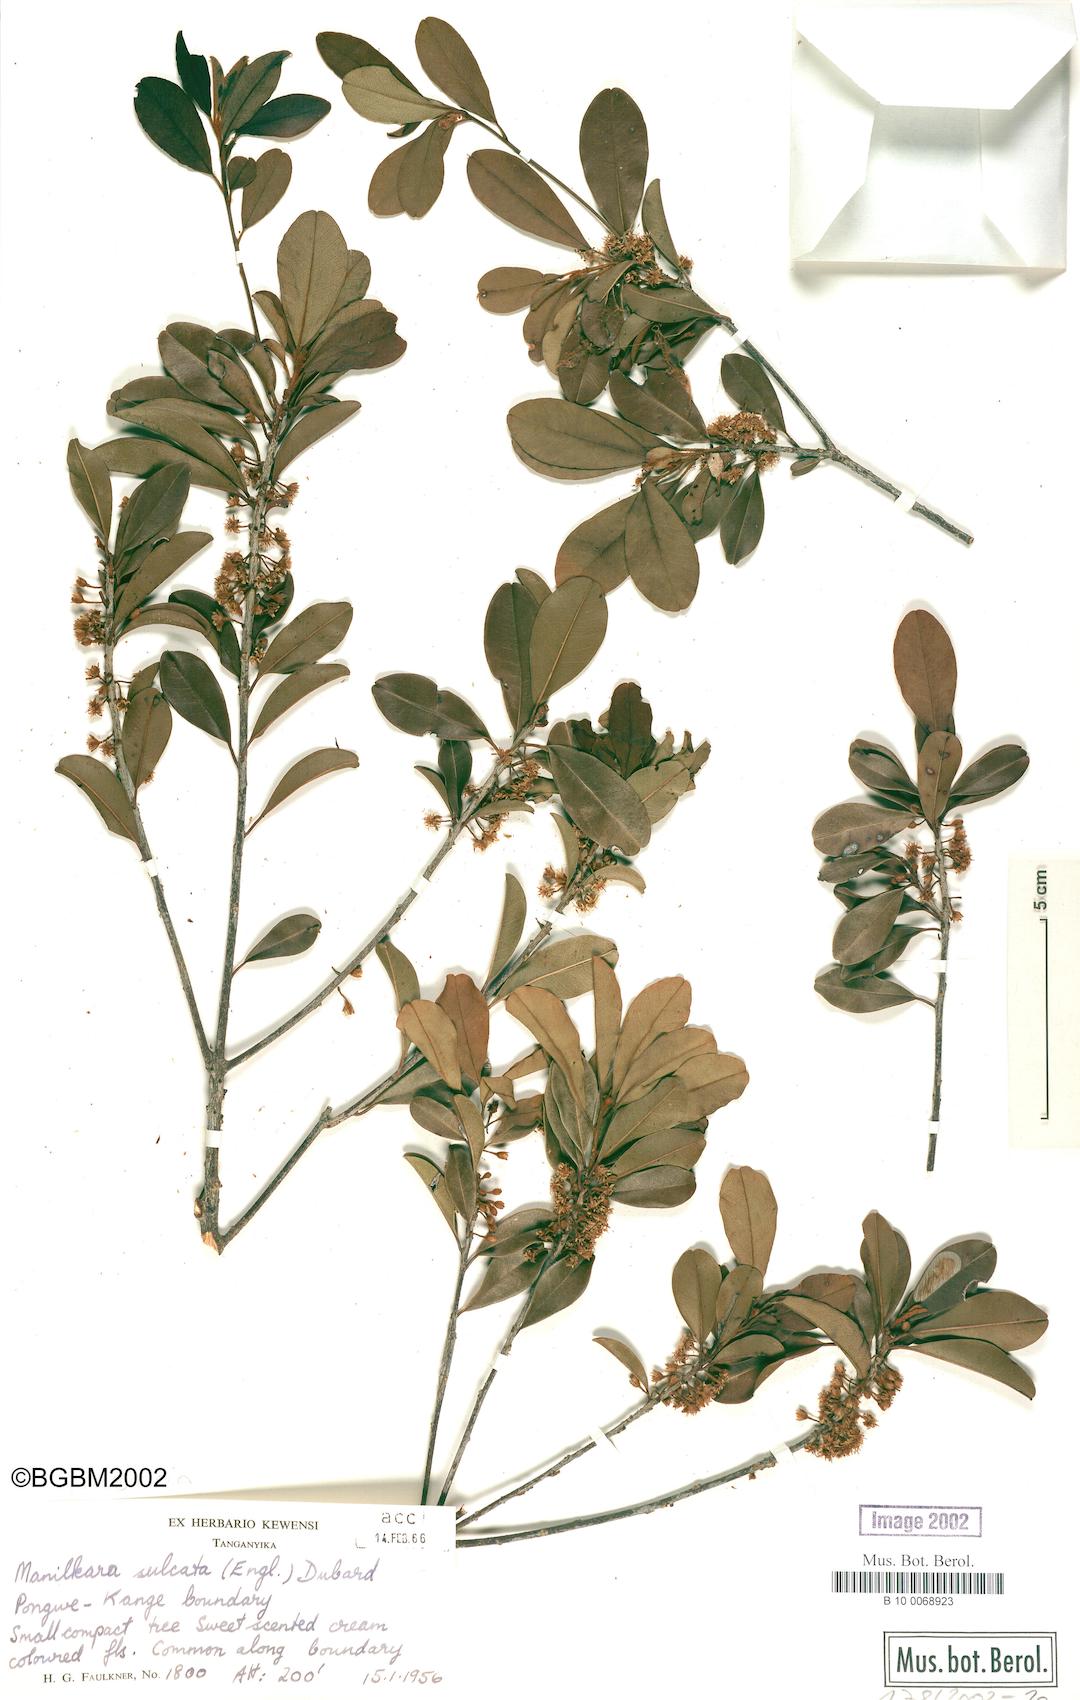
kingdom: Plantae
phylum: Tracheophyta
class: Magnoliopsida
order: Ericales
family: Sapotaceae
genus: Manilkara
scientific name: Manilkara sulcata
